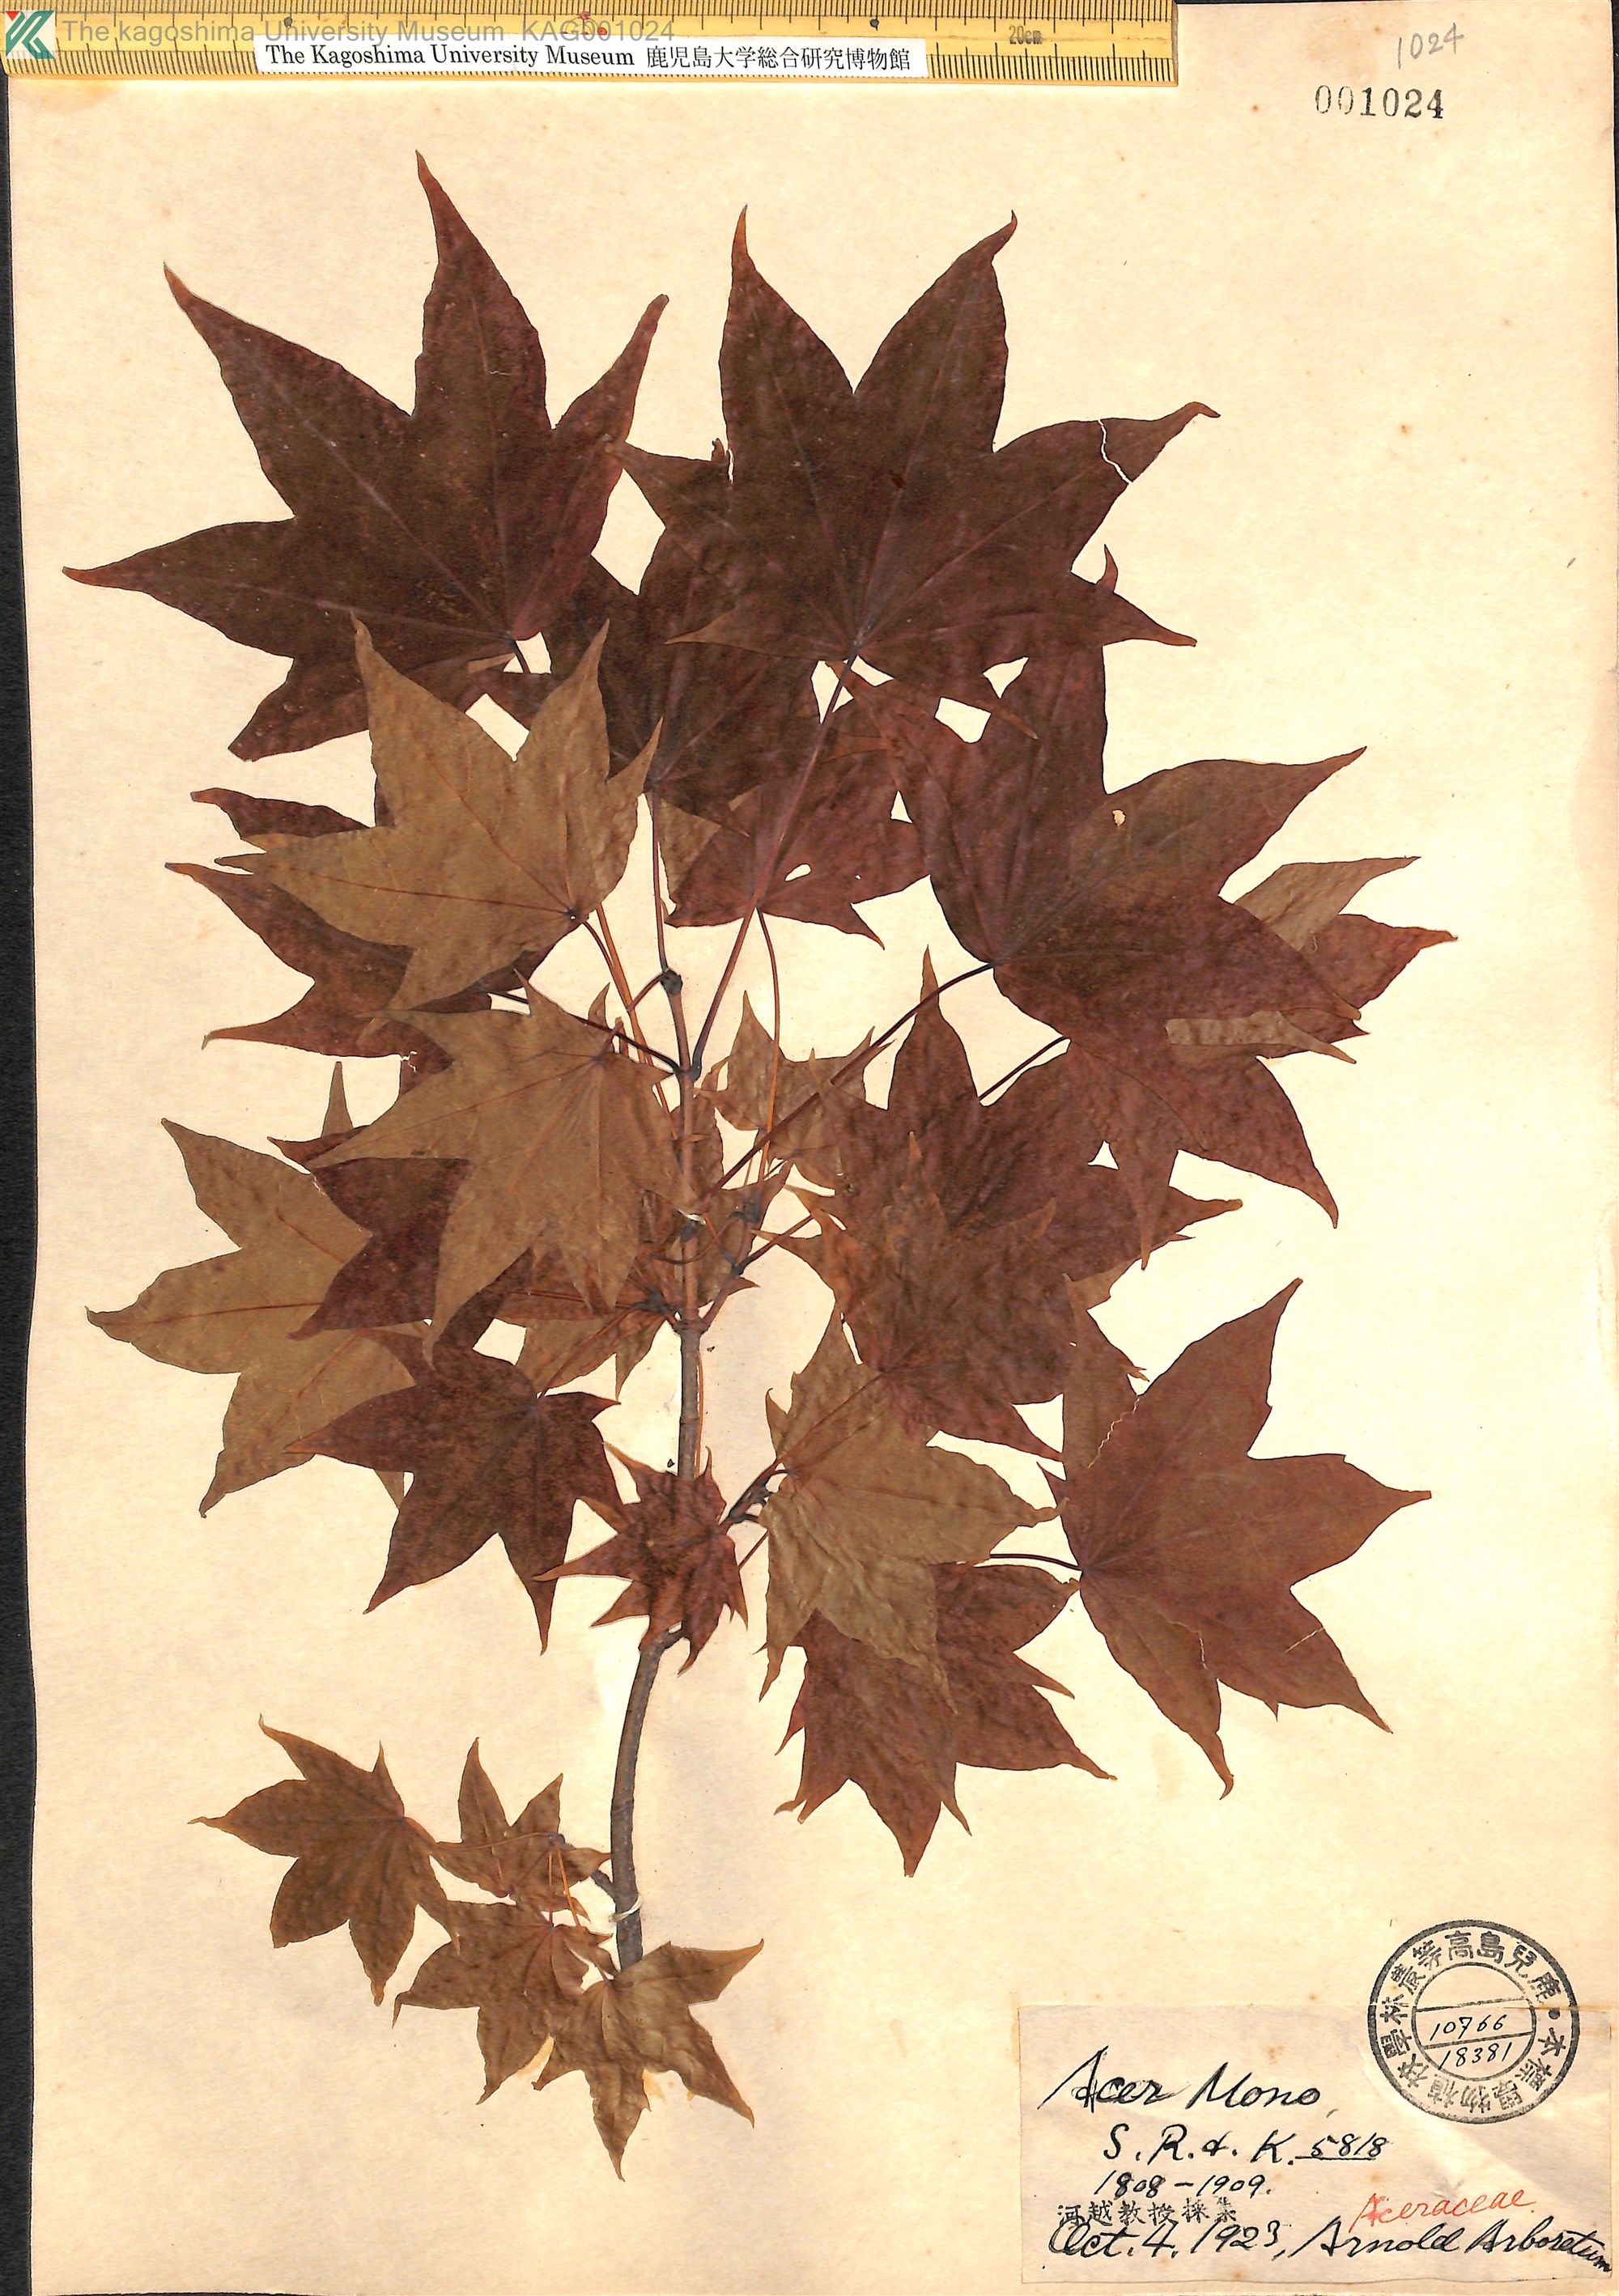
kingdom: Plantae
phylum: Tracheophyta
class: Magnoliopsida
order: Sapindales
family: Sapindaceae
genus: Acer
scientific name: Acer pictum
